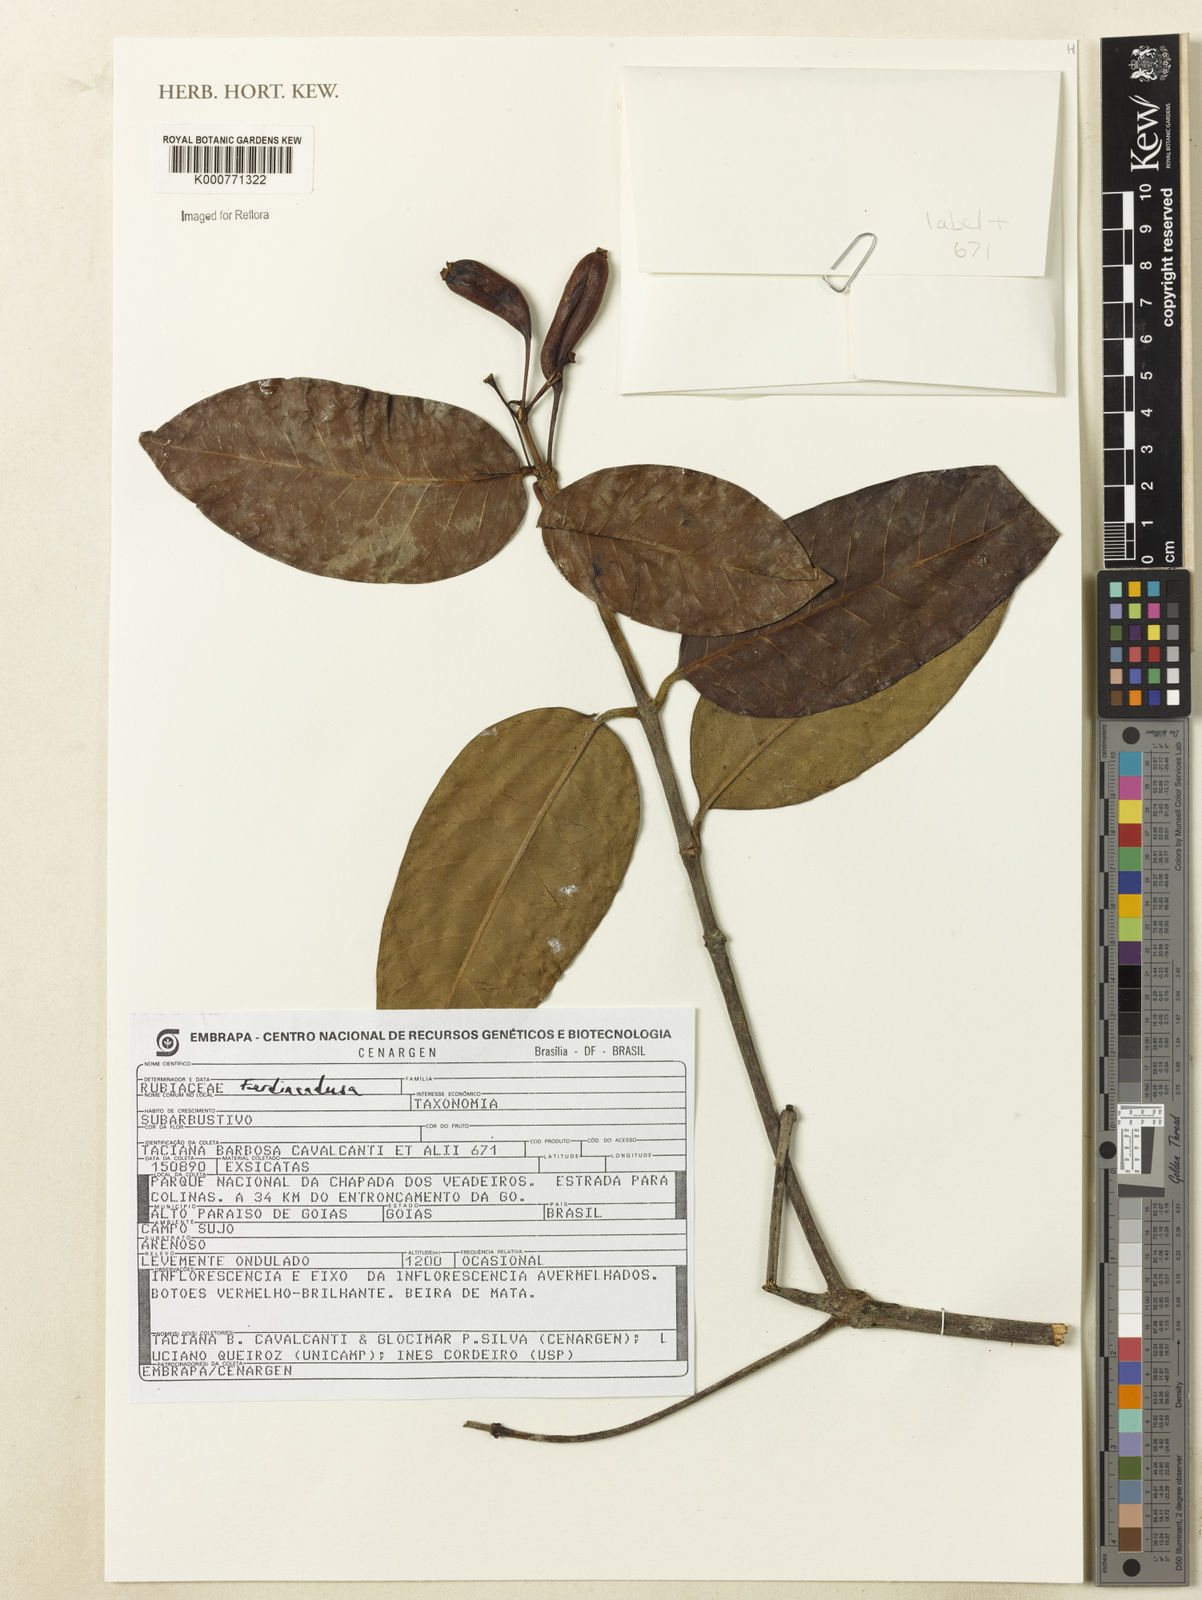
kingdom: Plantae
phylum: Tracheophyta
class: Magnoliopsida
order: Gentianales
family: Rubiaceae
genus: Ferdinandusa
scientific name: Ferdinandusa
